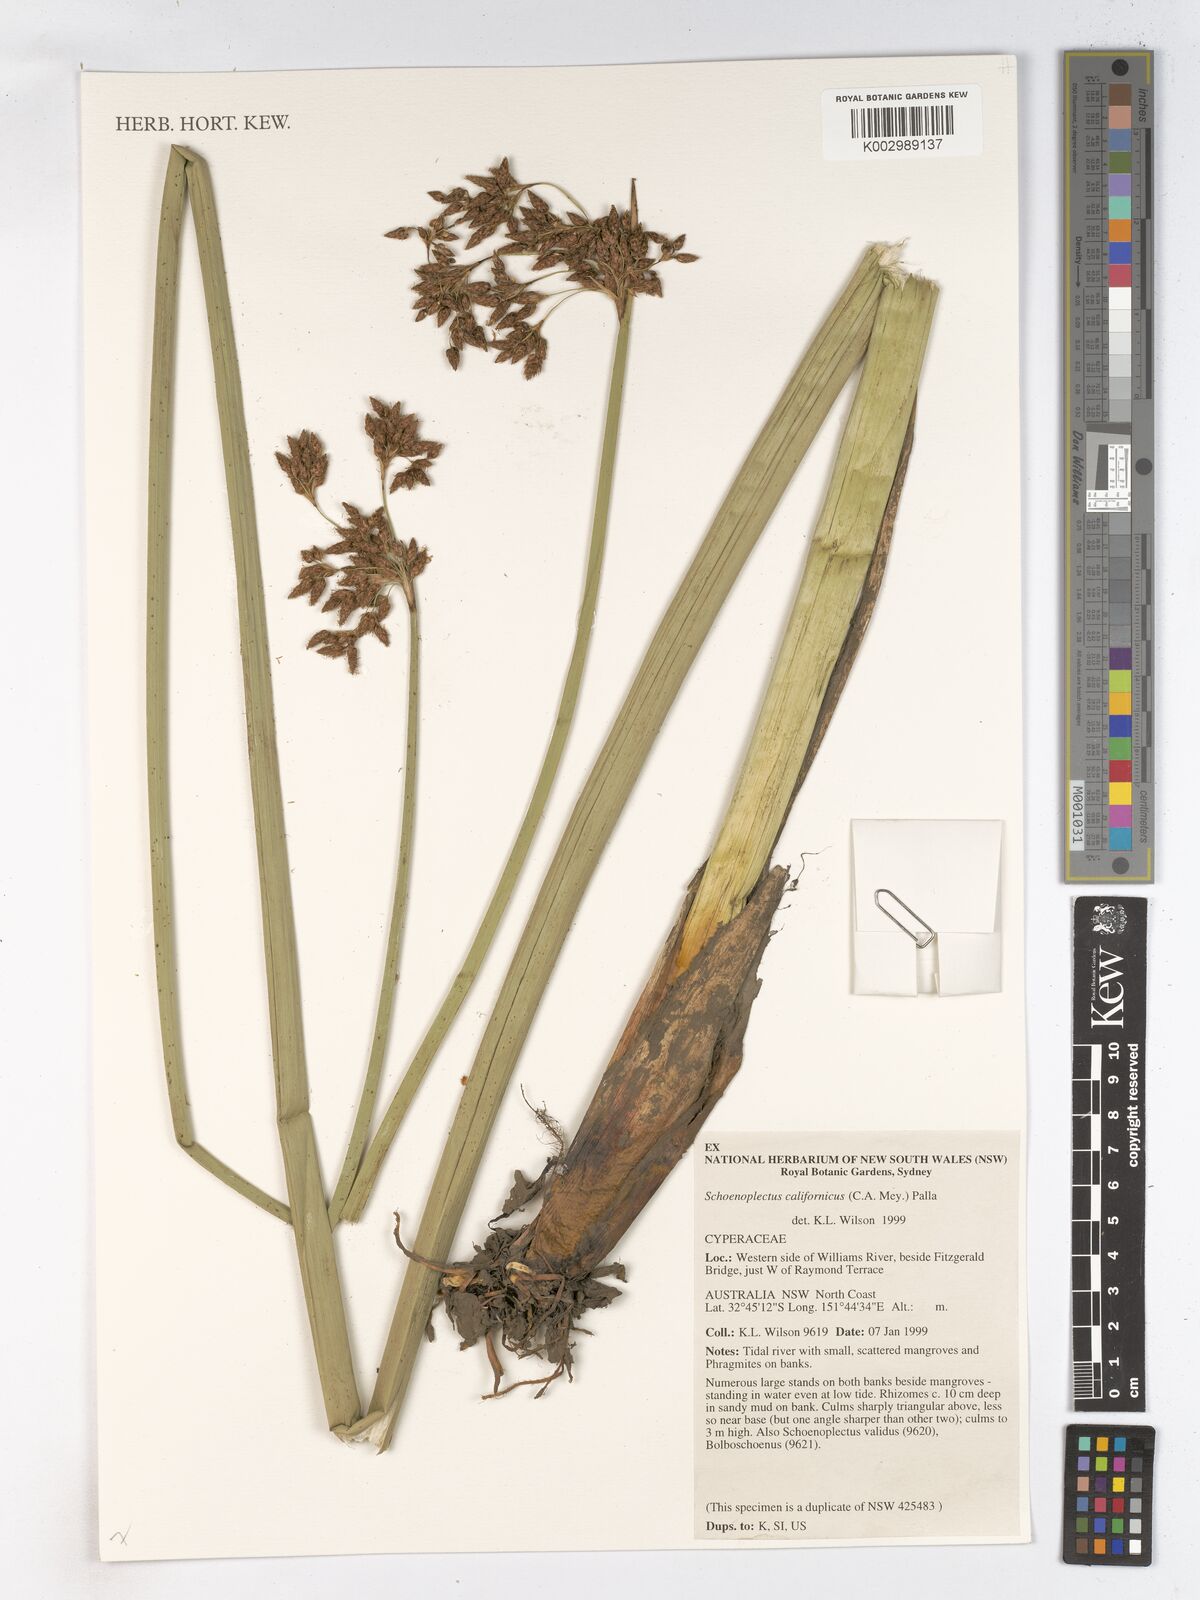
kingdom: Plantae
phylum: Tracheophyta
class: Liliopsida
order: Poales
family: Cyperaceae
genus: Schoenoplectus
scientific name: Schoenoplectus californicus
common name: California bulrush
